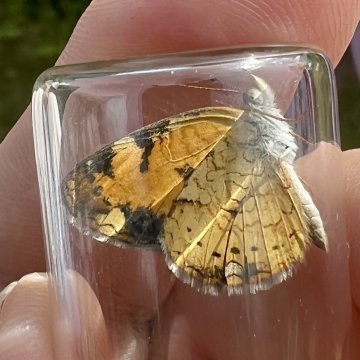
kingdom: Animalia
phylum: Arthropoda
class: Insecta
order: Lepidoptera
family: Nymphalidae
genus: Phyciodes
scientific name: Phyciodes
